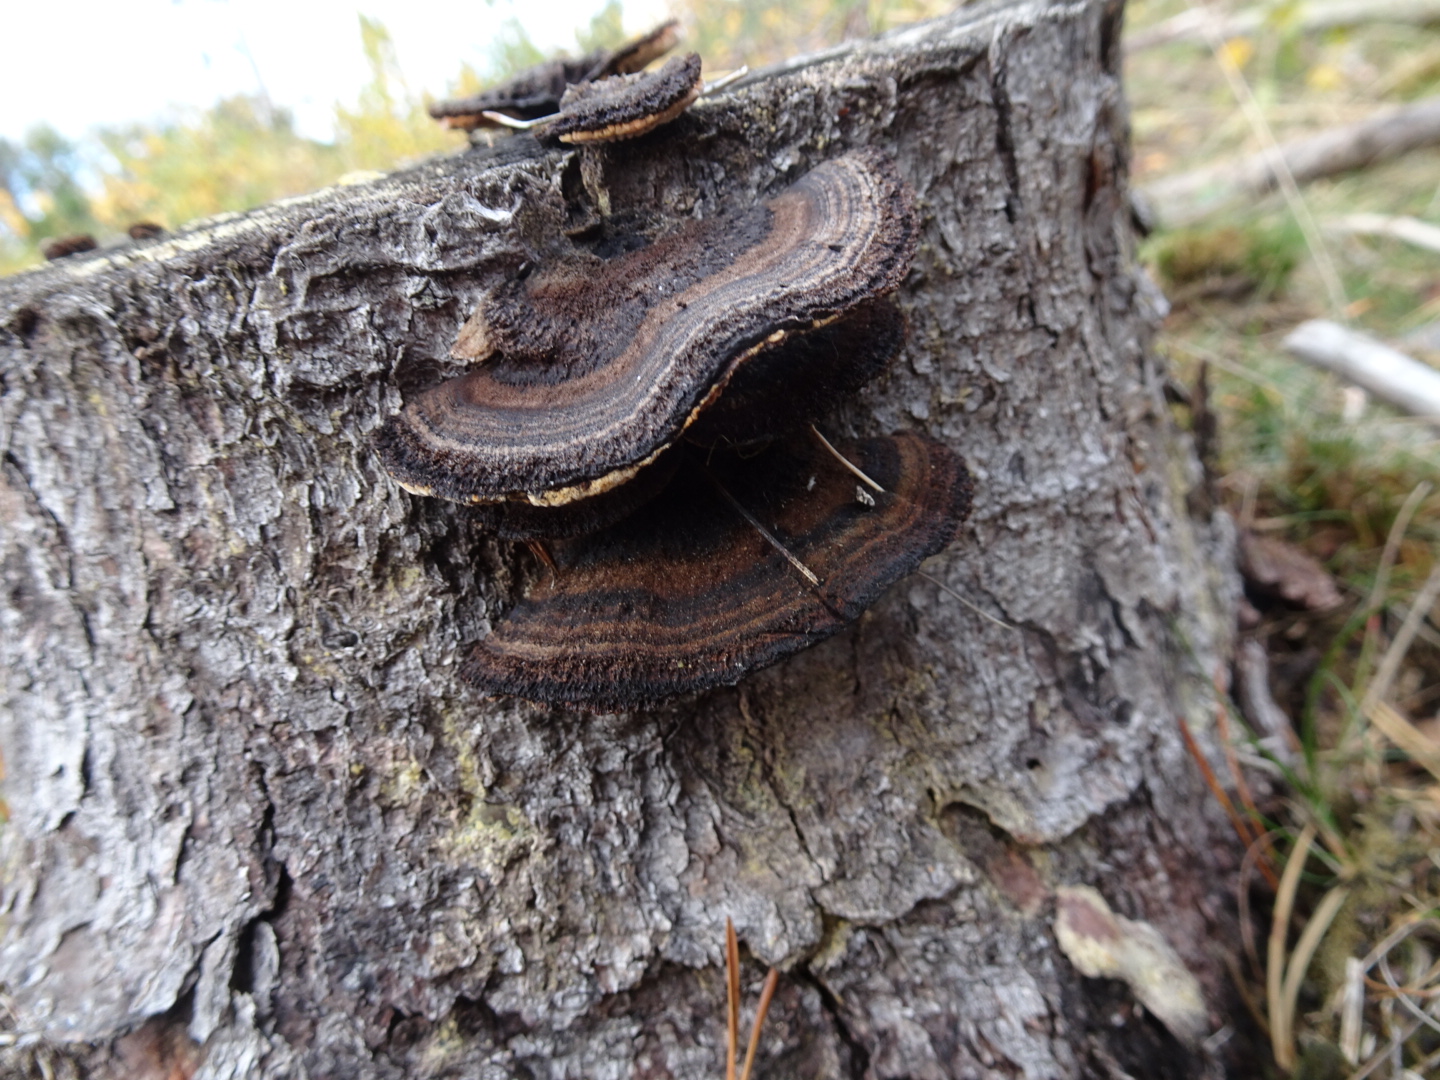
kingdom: Fungi
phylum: Basidiomycota
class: Agaricomycetes
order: Gloeophyllales
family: Gloeophyllaceae
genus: Gloeophyllum
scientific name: Gloeophyllum sepiarium
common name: fyrre-korkhat
